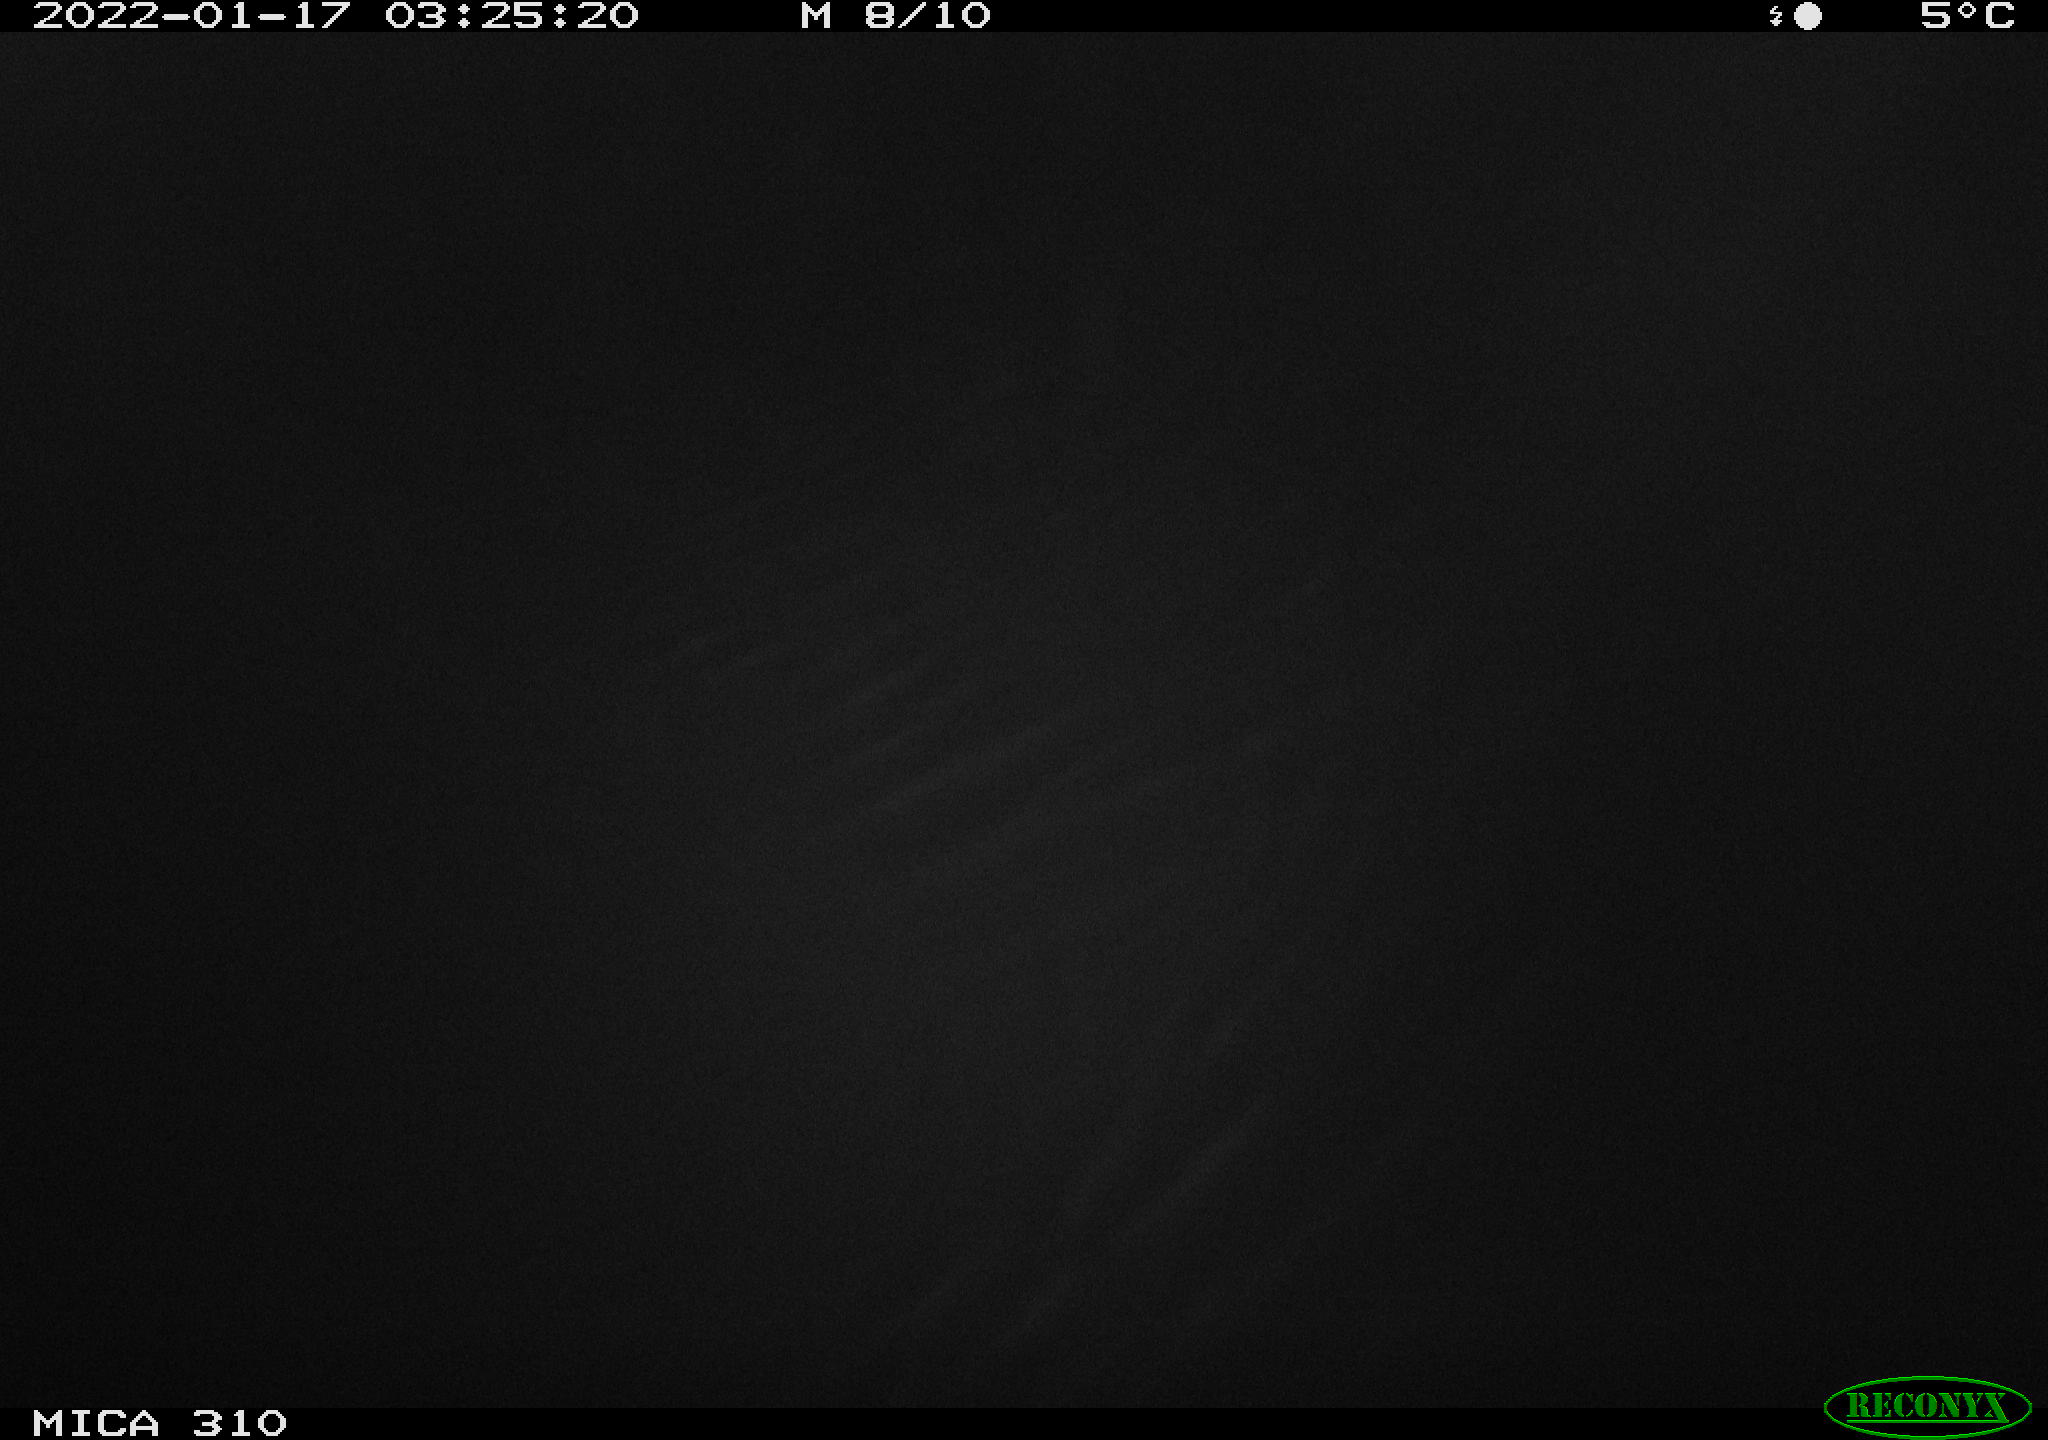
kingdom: Animalia
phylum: Chordata
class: Mammalia
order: Rodentia
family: Cricetidae
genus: Ondatra
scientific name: Ondatra zibethicus
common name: Muskrat
